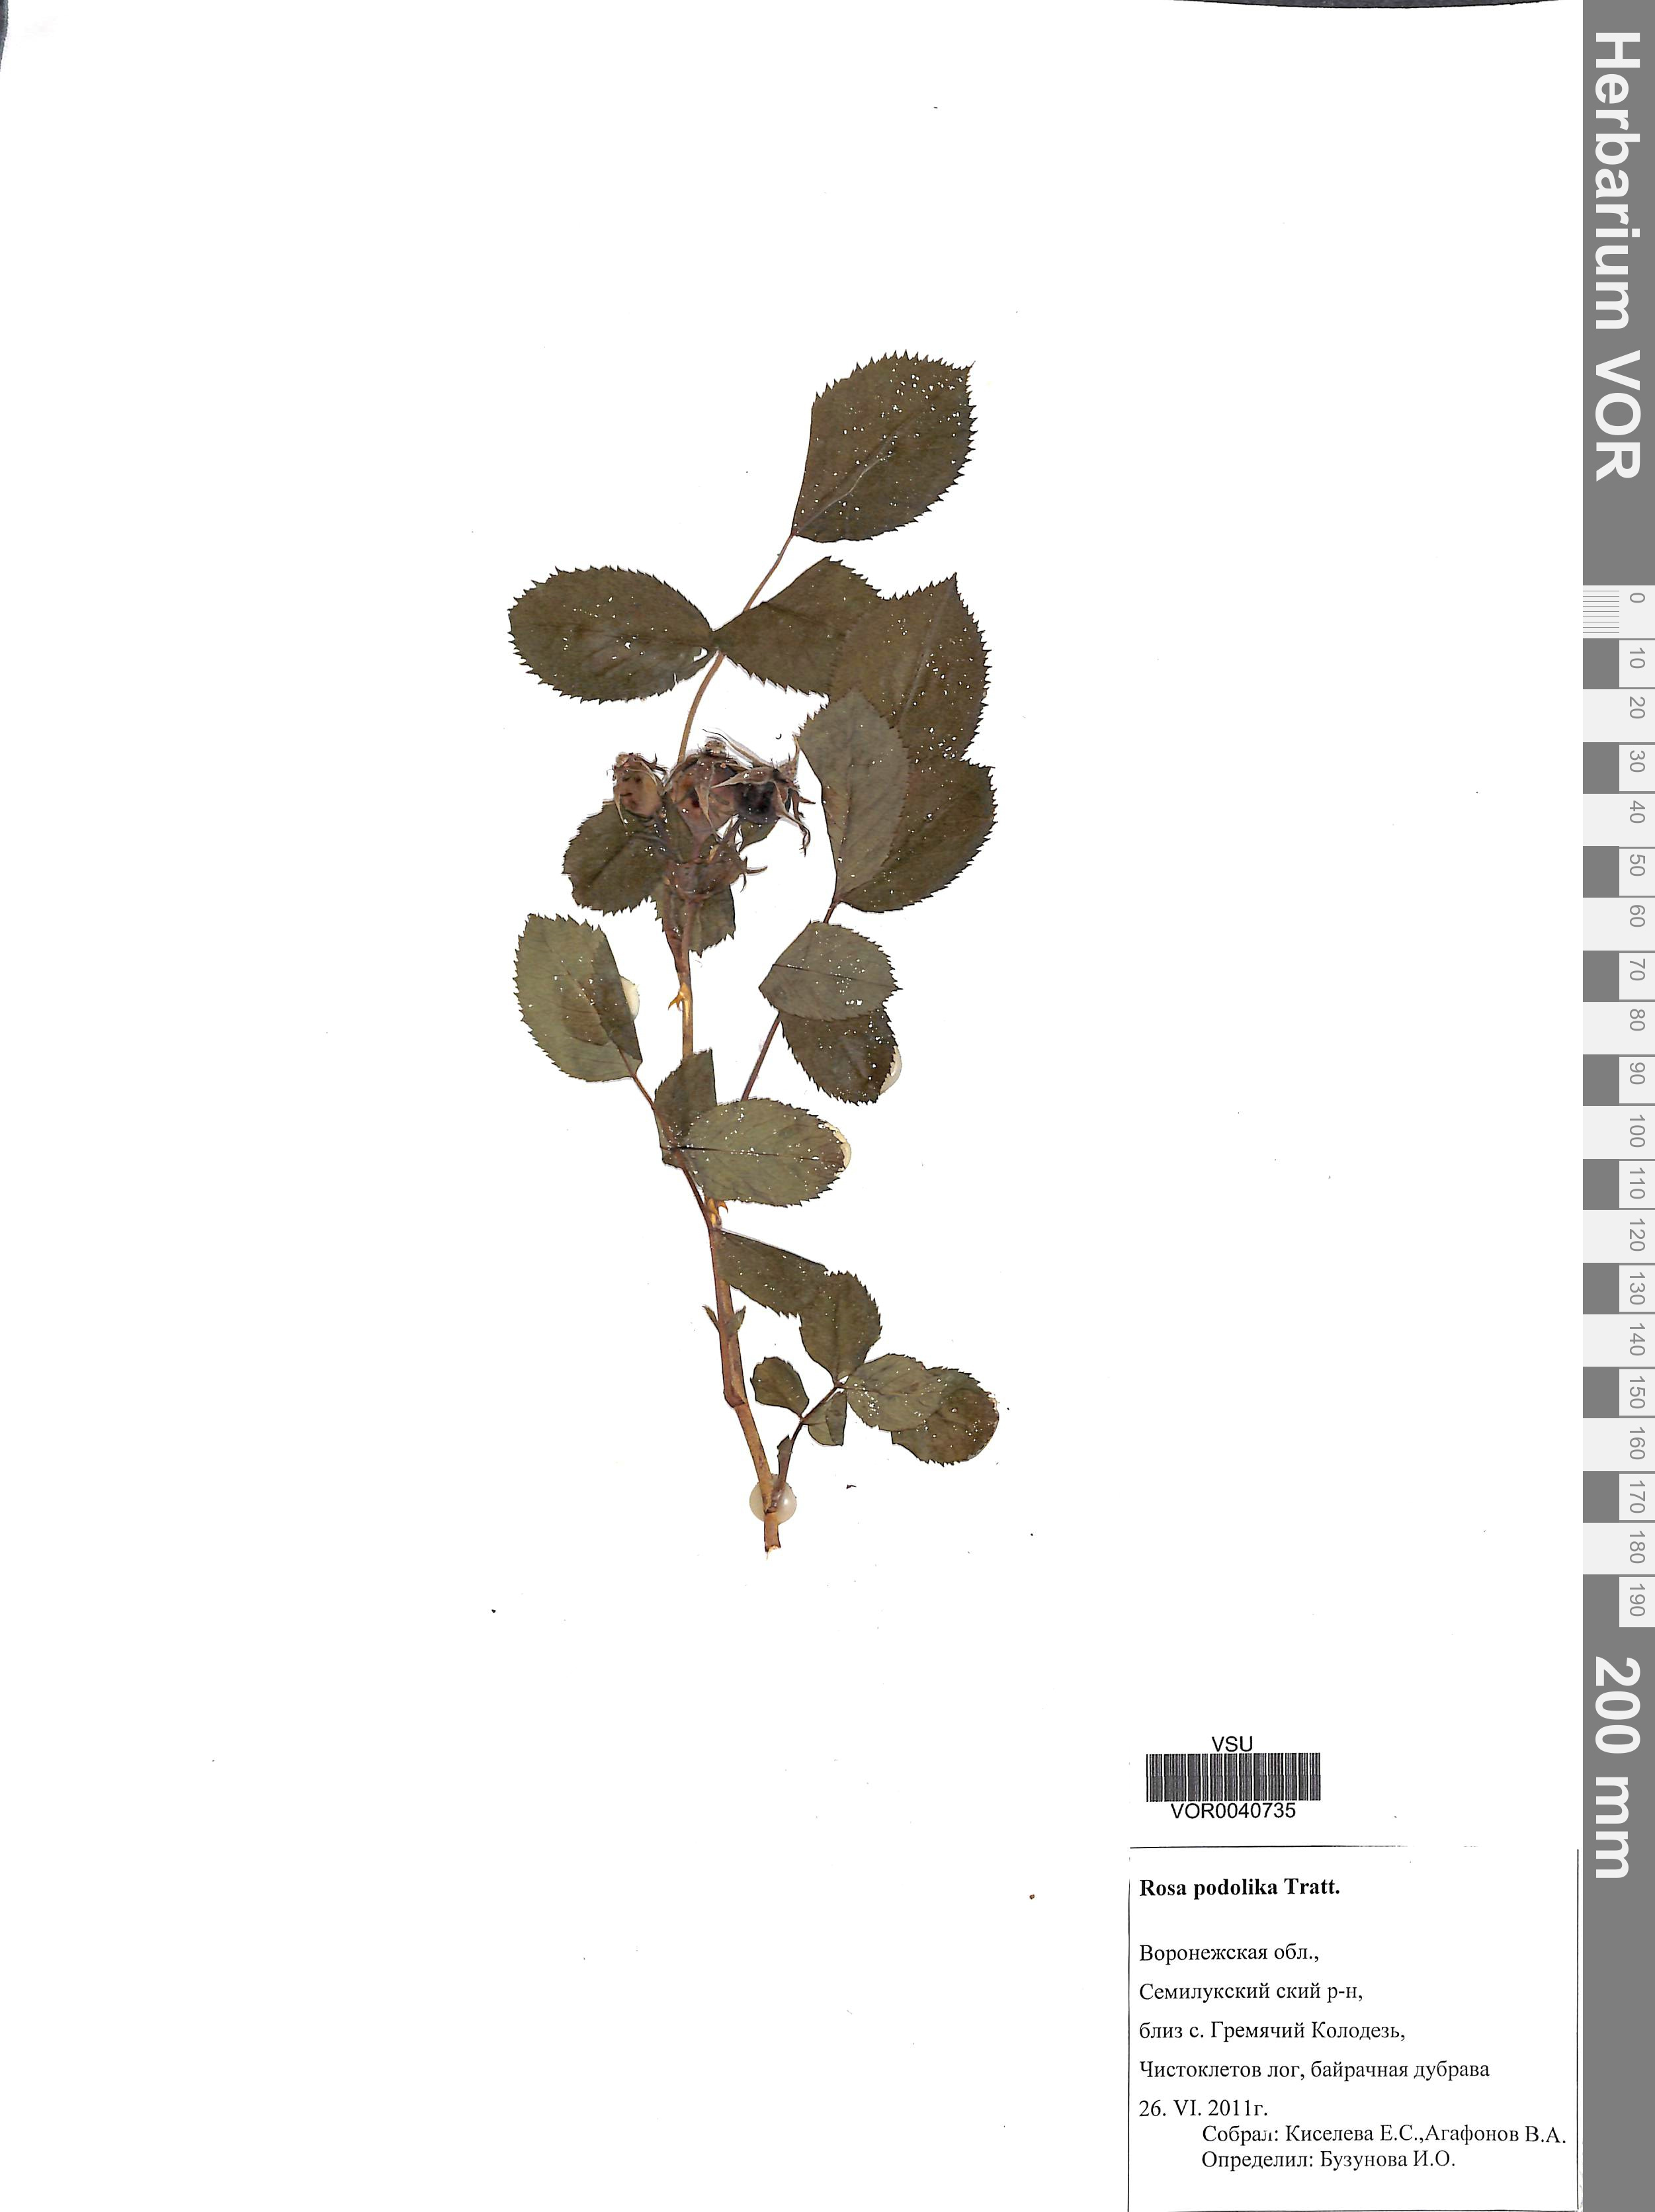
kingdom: Plantae
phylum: Tracheophyta
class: Magnoliopsida
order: Rosales
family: Rosaceae
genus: Rosa
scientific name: Rosa tomentosa
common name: Downy rose
